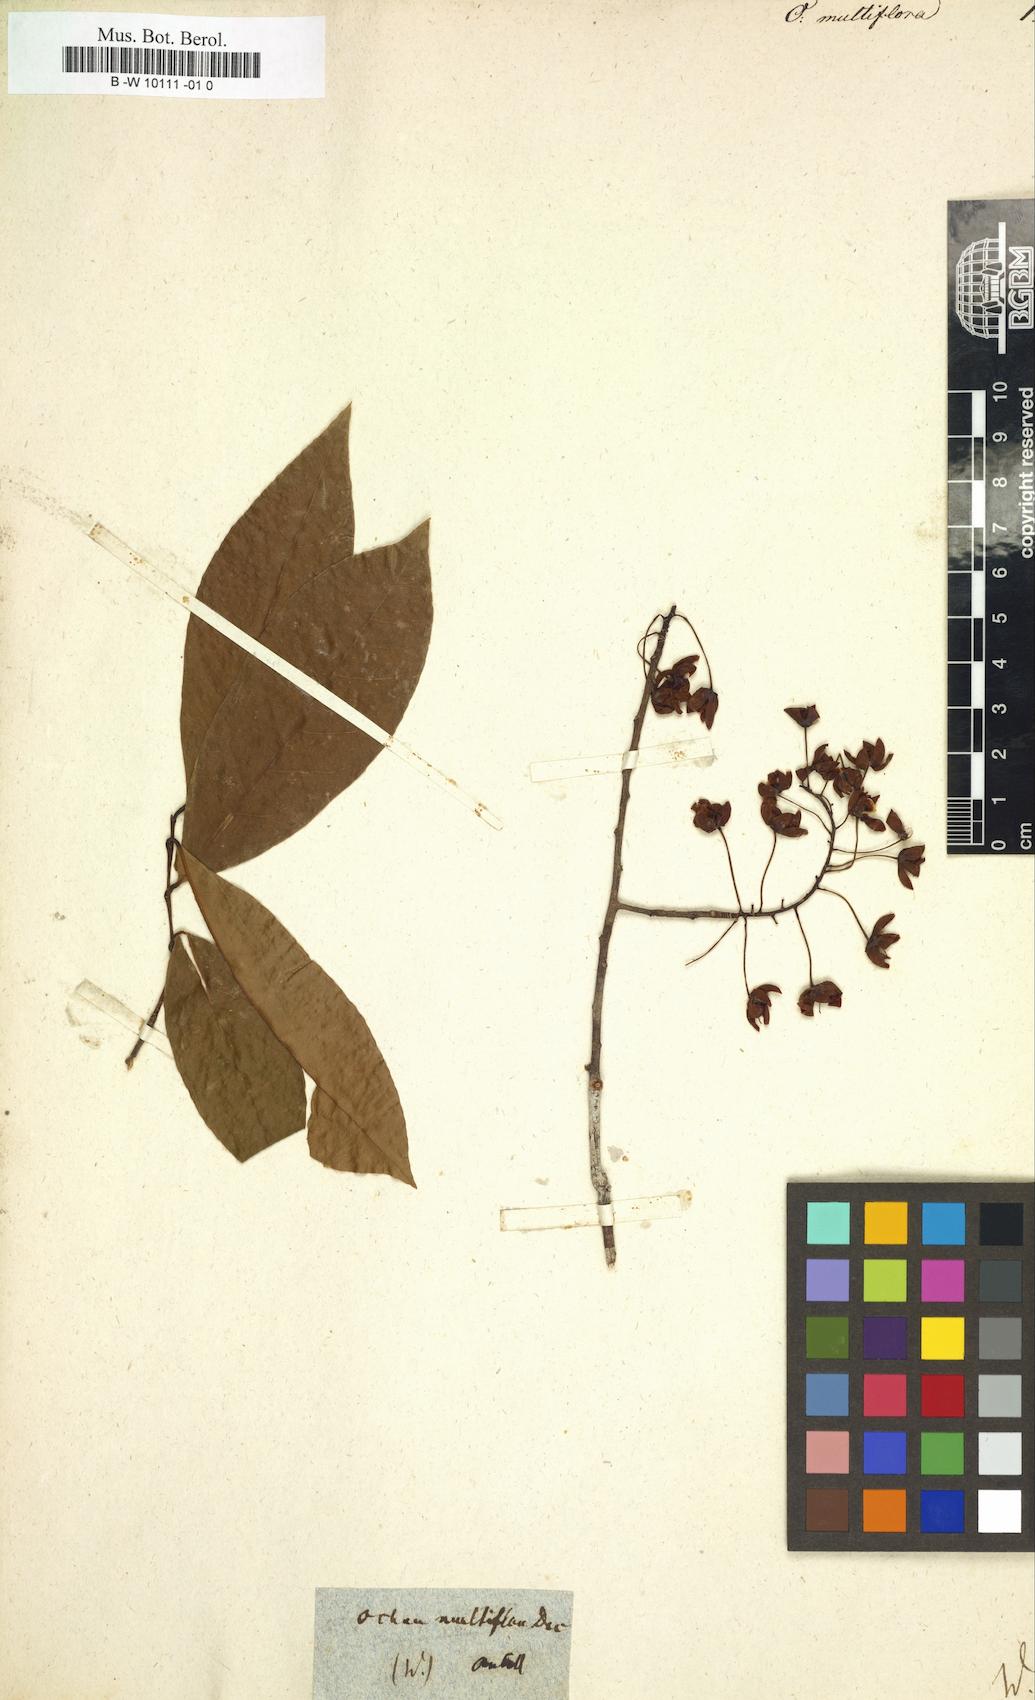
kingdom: Plantae
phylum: Tracheophyta
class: Magnoliopsida
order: Malpighiales
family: Ochnaceae
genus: Ochna
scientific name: Ochna multiflora
